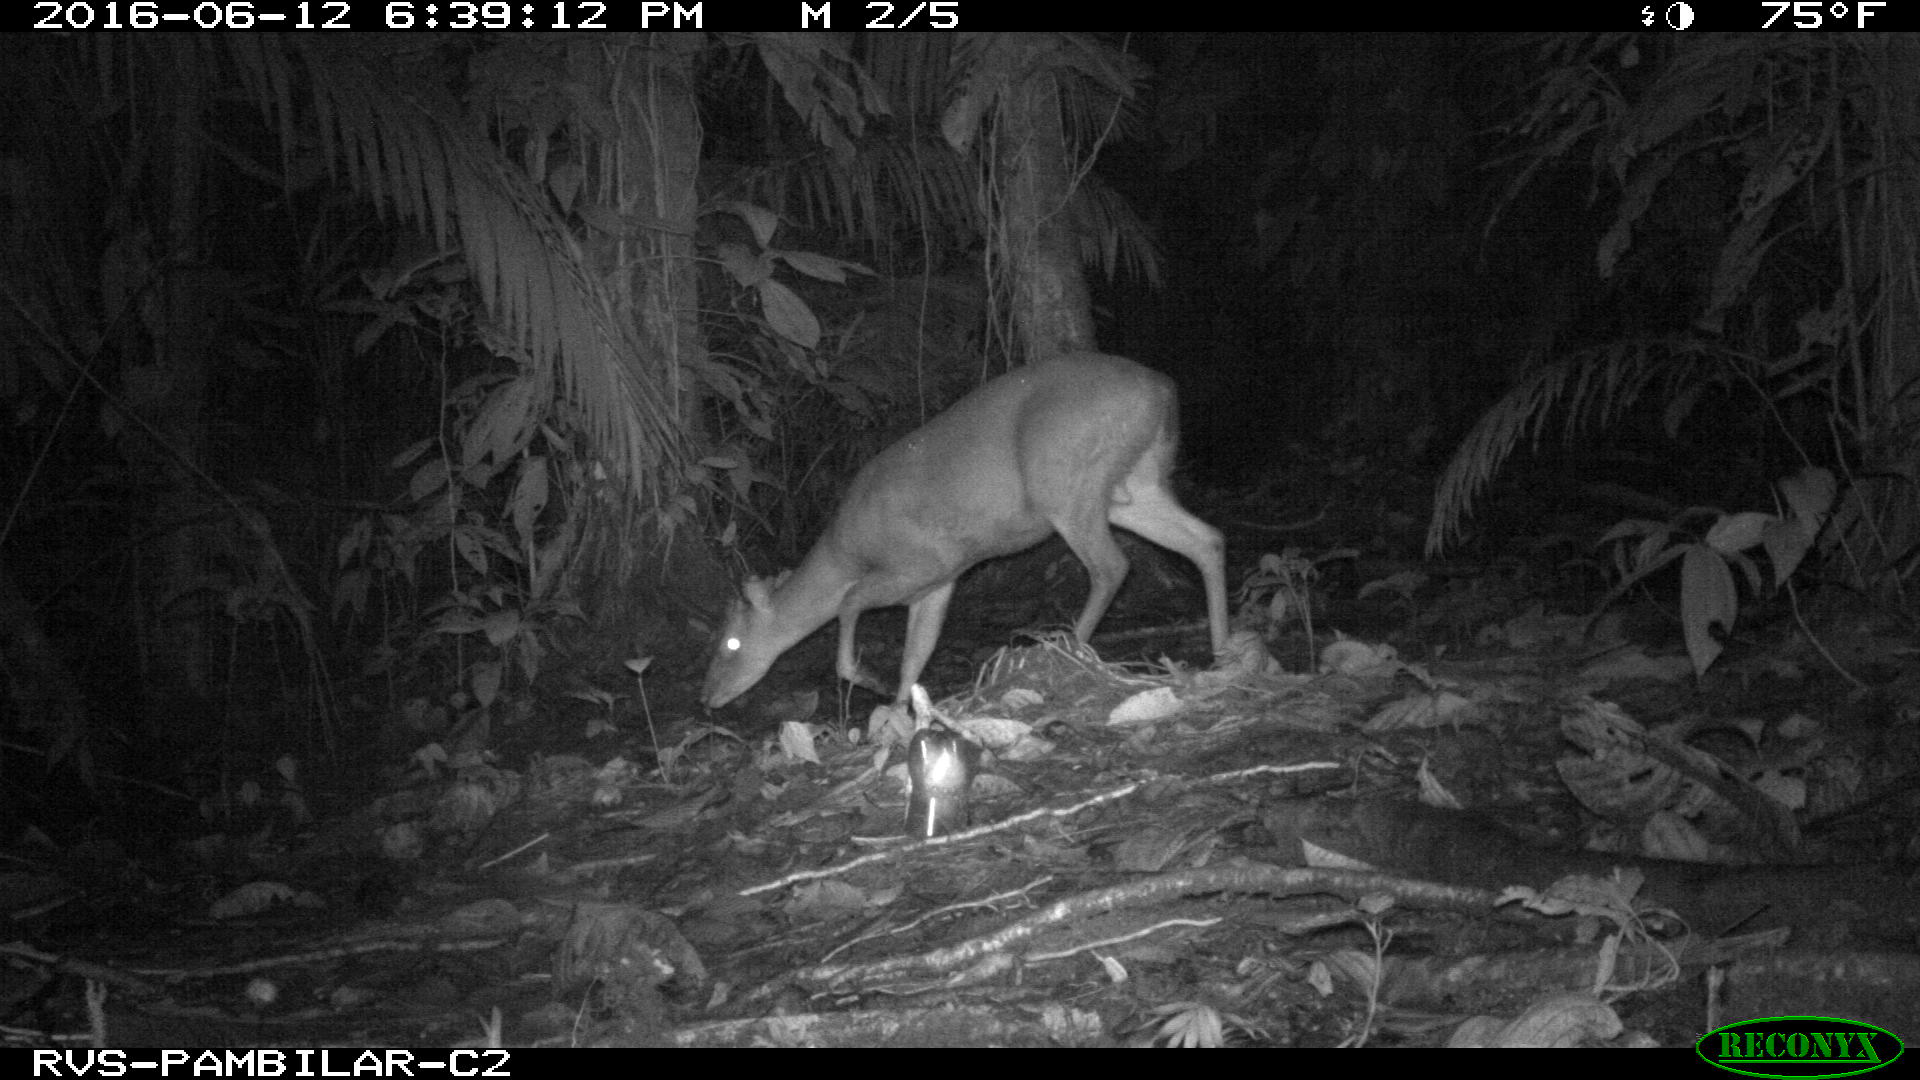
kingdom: Animalia
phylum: Chordata
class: Mammalia
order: Artiodactyla
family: Cervidae
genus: Mazama
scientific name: Mazama americana
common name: Red brocket
